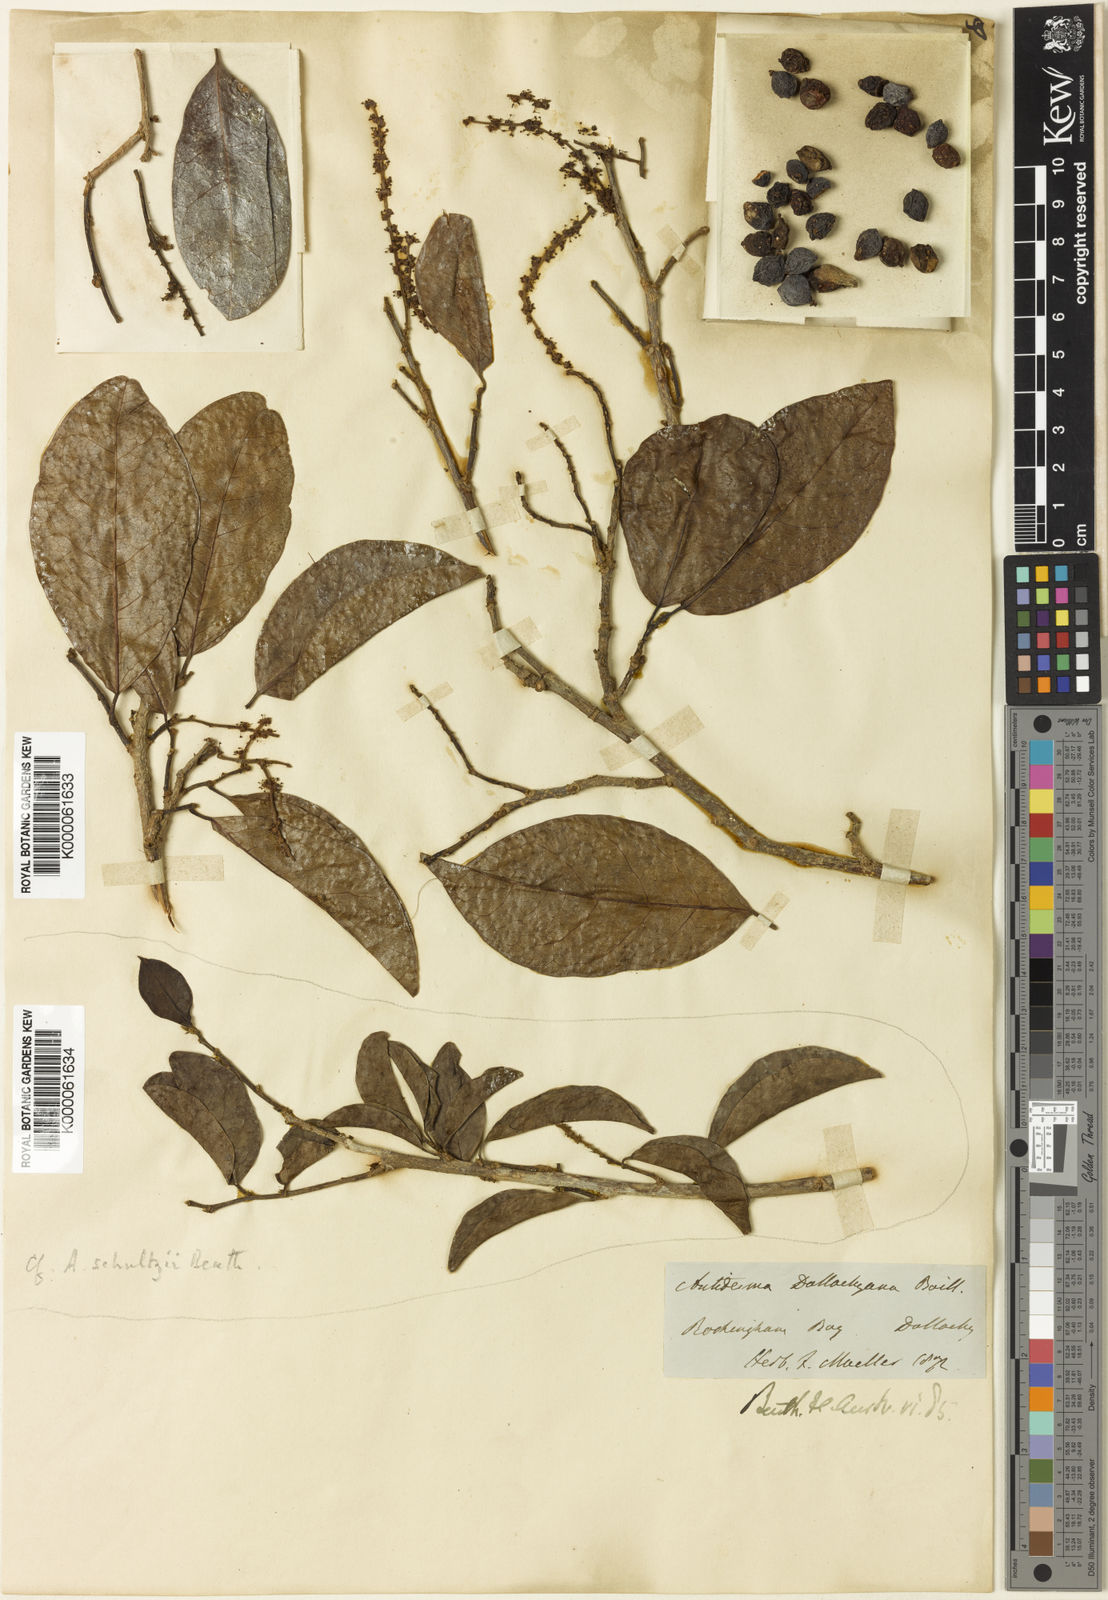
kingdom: Plantae
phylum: Tracheophyta
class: Magnoliopsida
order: Malpighiales
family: Phyllanthaceae
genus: Antidesma
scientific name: Antidesma dallachyanum
